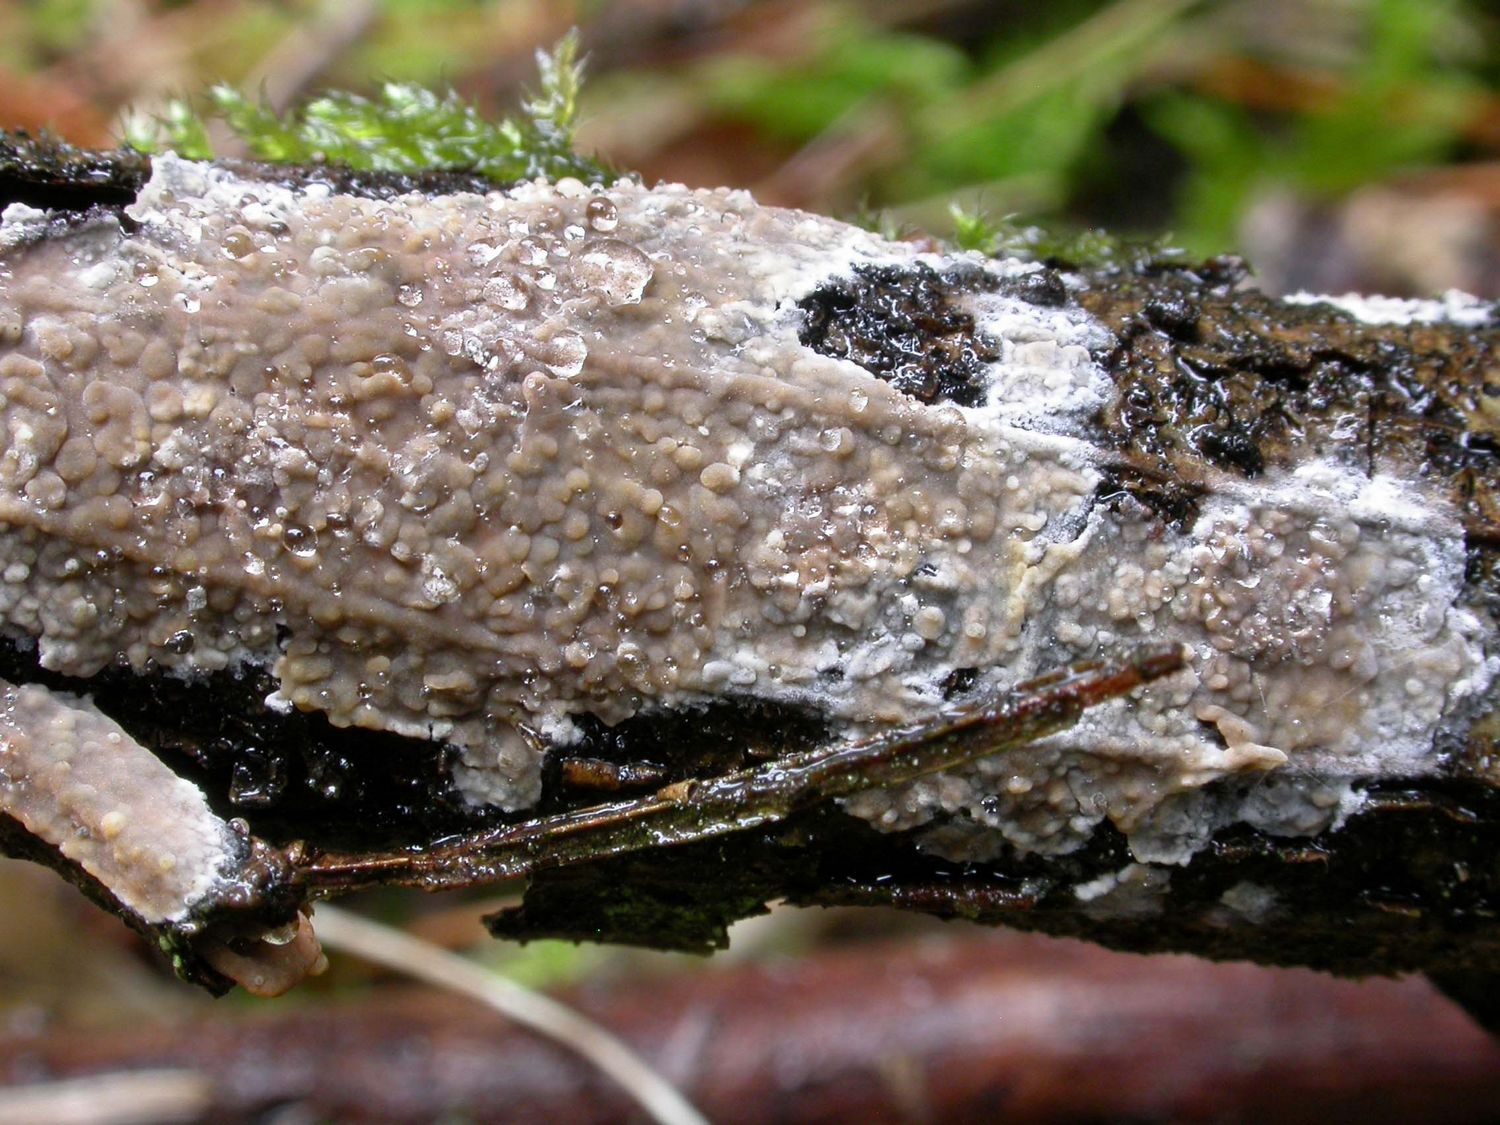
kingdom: Fungi
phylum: Basidiomycota
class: Agaricomycetes
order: Russulales
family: Peniophoraceae
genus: Peniophora
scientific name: Peniophora incarnata
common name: laksefarvet voksskind
